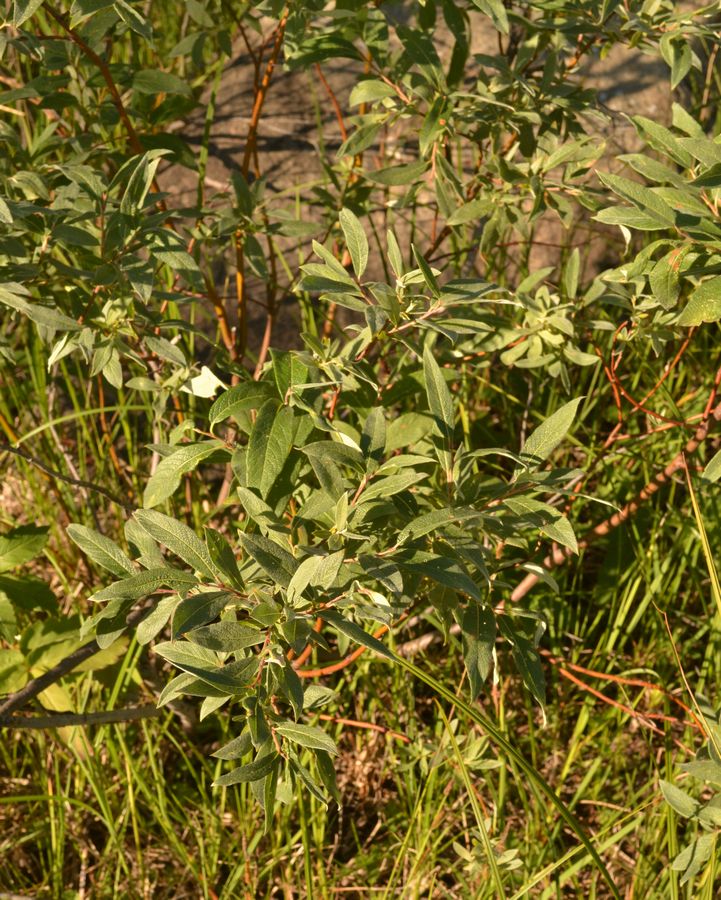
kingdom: Plantae
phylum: Tracheophyta
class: Magnoliopsida
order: Malpighiales
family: Salicaceae
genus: Salix
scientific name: Salix lapponum
